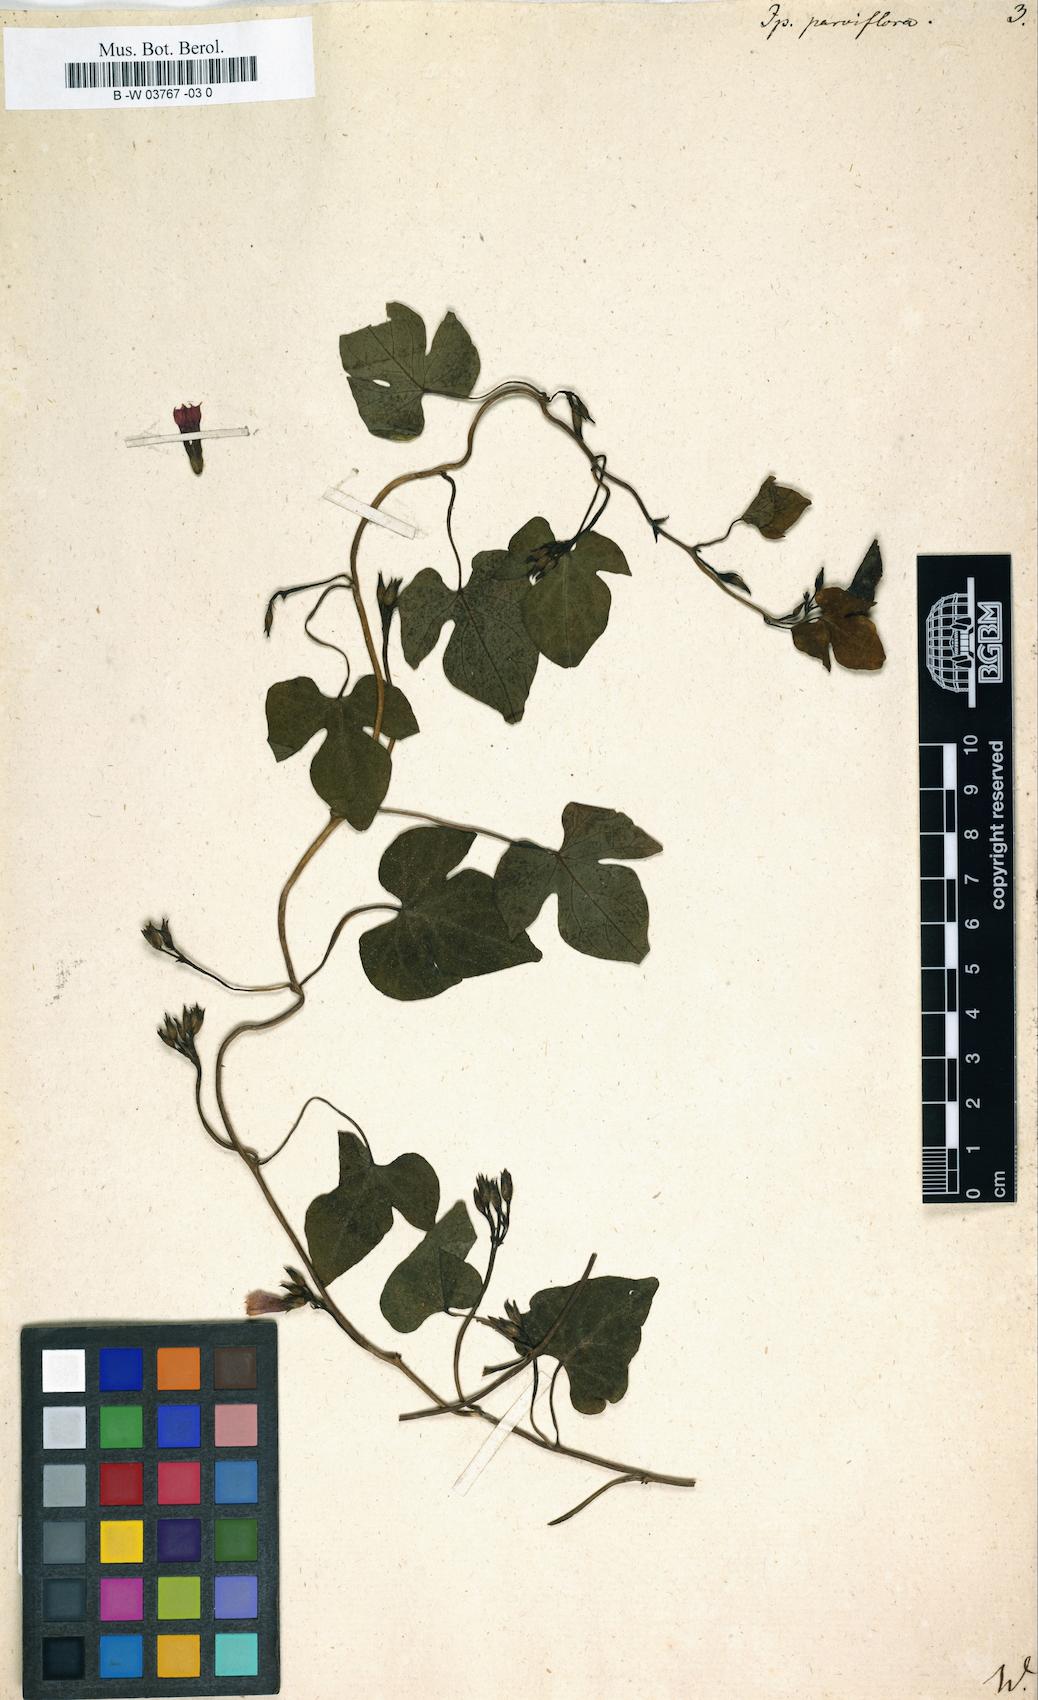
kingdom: Plantae
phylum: Tracheophyta
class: Magnoliopsida
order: Solanales
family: Convolvulaceae
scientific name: Convolvulaceae
